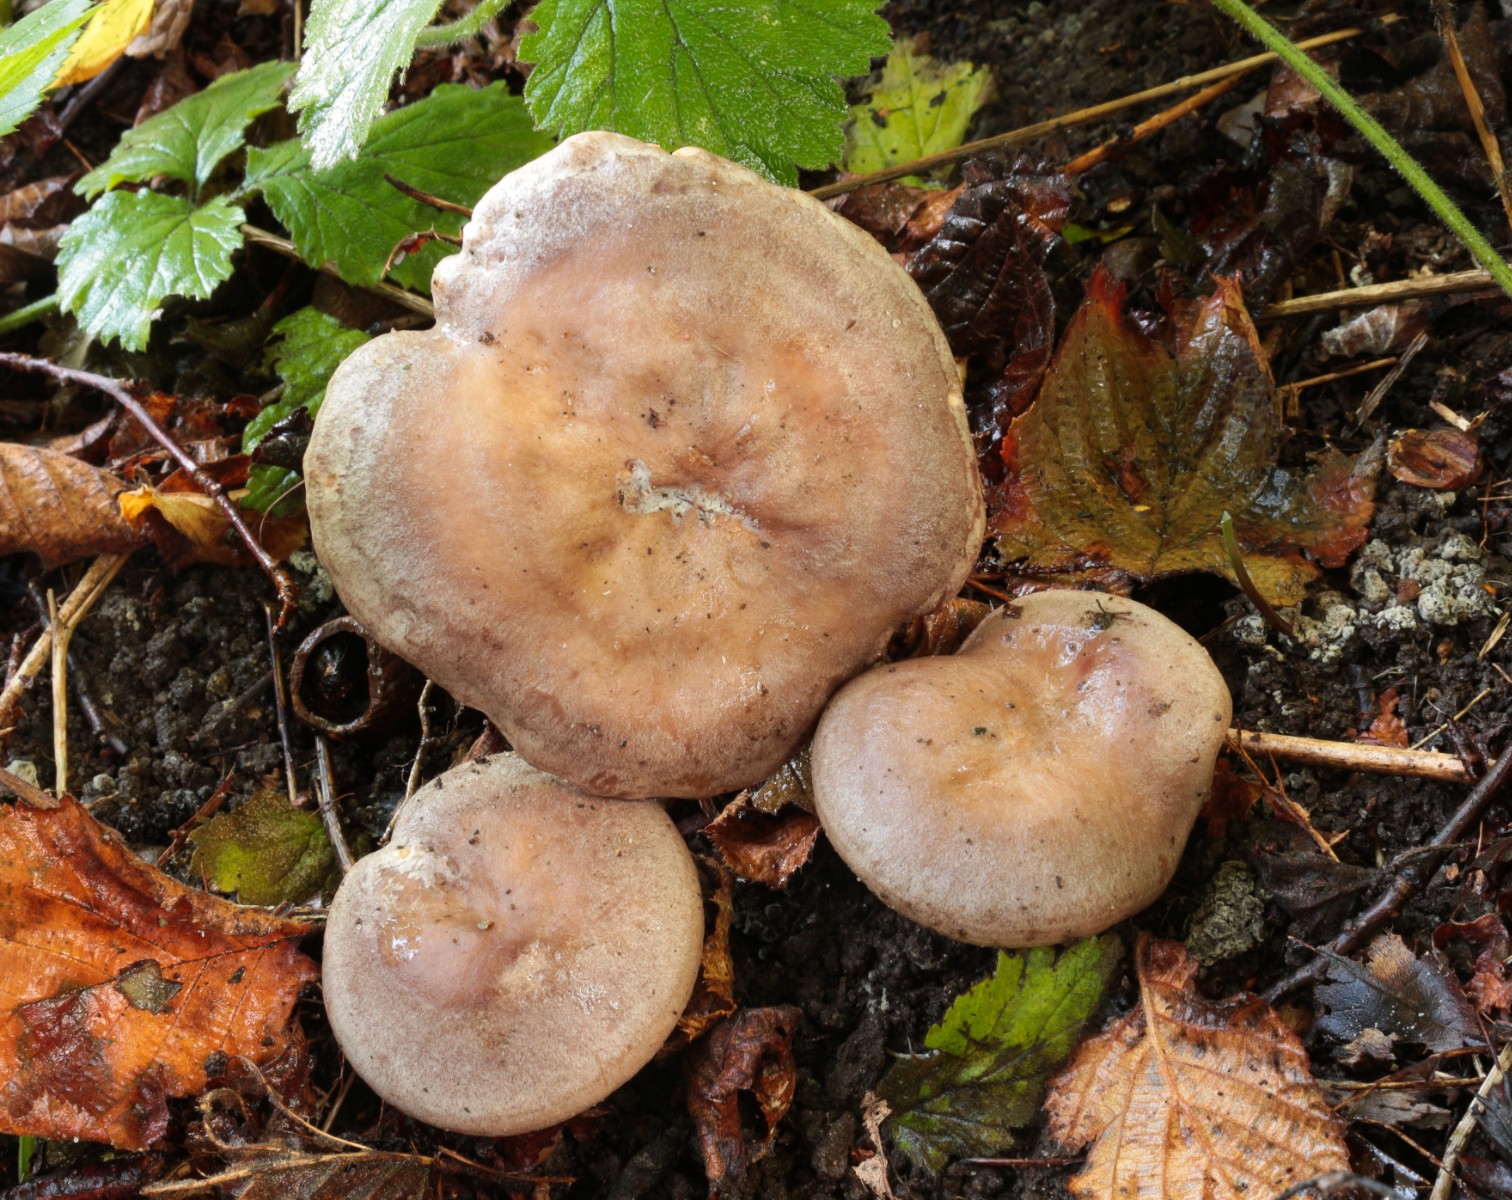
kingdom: Fungi
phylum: Basidiomycota
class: Agaricomycetes
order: Russulales
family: Russulaceae
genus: Lactarius
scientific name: Lactarius pyrogalus
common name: hassel-mælkehat
